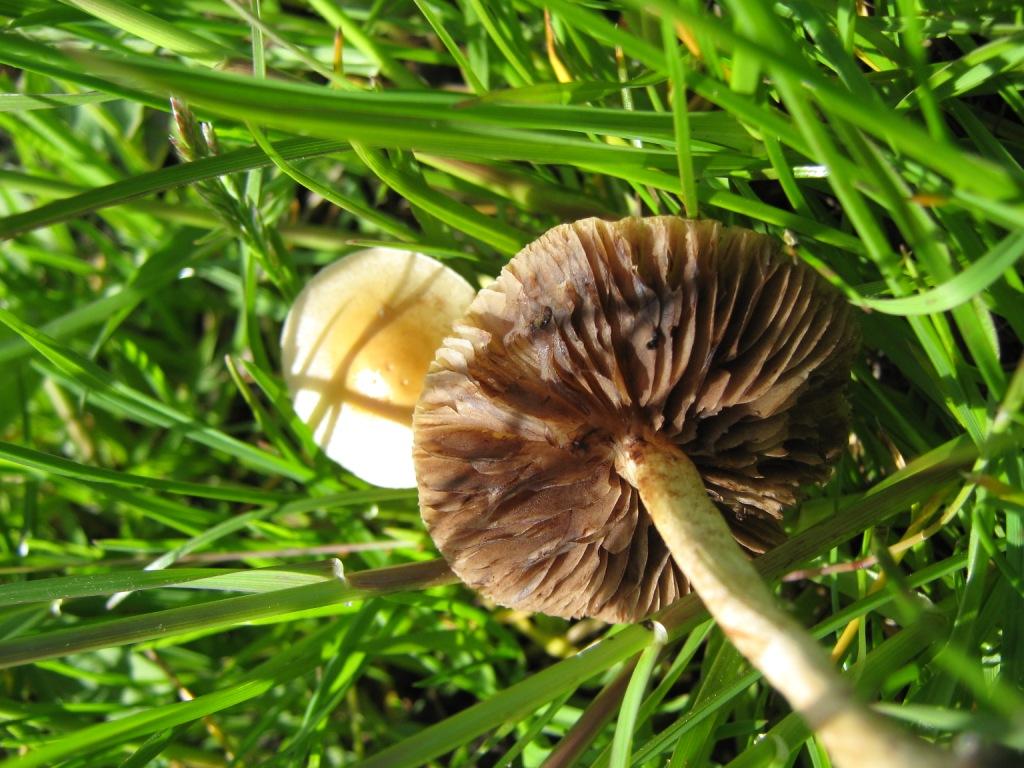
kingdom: Fungi
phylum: Basidiomycota
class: Agaricomycetes
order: Agaricales
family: Strophariaceae
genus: Agrocybe
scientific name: Agrocybe pediades
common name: almindelig agerhat
